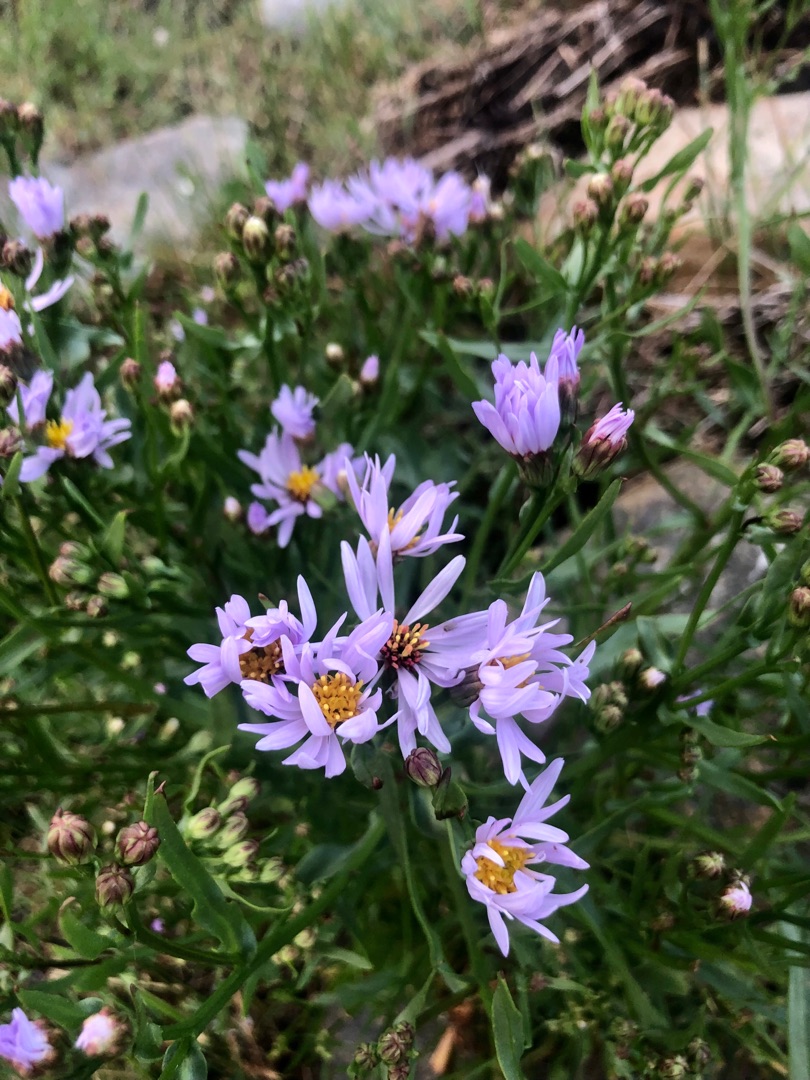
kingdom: Plantae
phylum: Tracheophyta
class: Magnoliopsida
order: Asterales
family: Asteraceae
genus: Tripolium
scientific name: Tripolium pannonicum
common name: Strandasters
